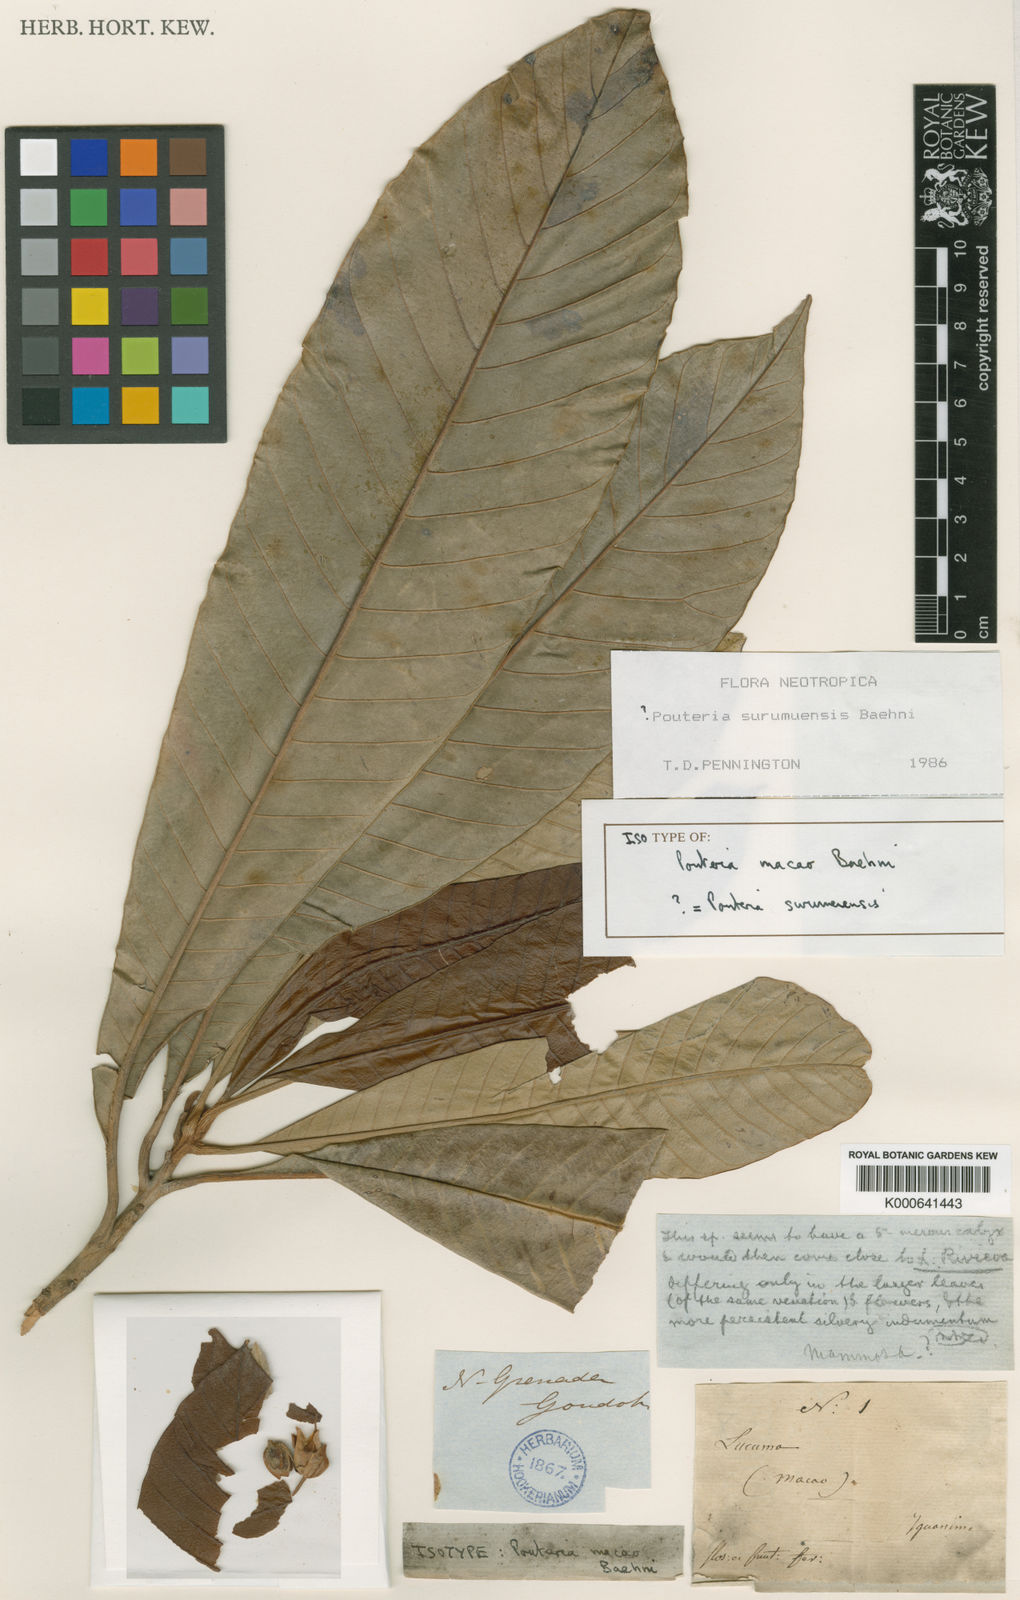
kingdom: Plantae
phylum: Tracheophyta
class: Magnoliopsida
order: Ericales
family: Sapotaceae
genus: Pouteria
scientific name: Pouteria surumuensis
